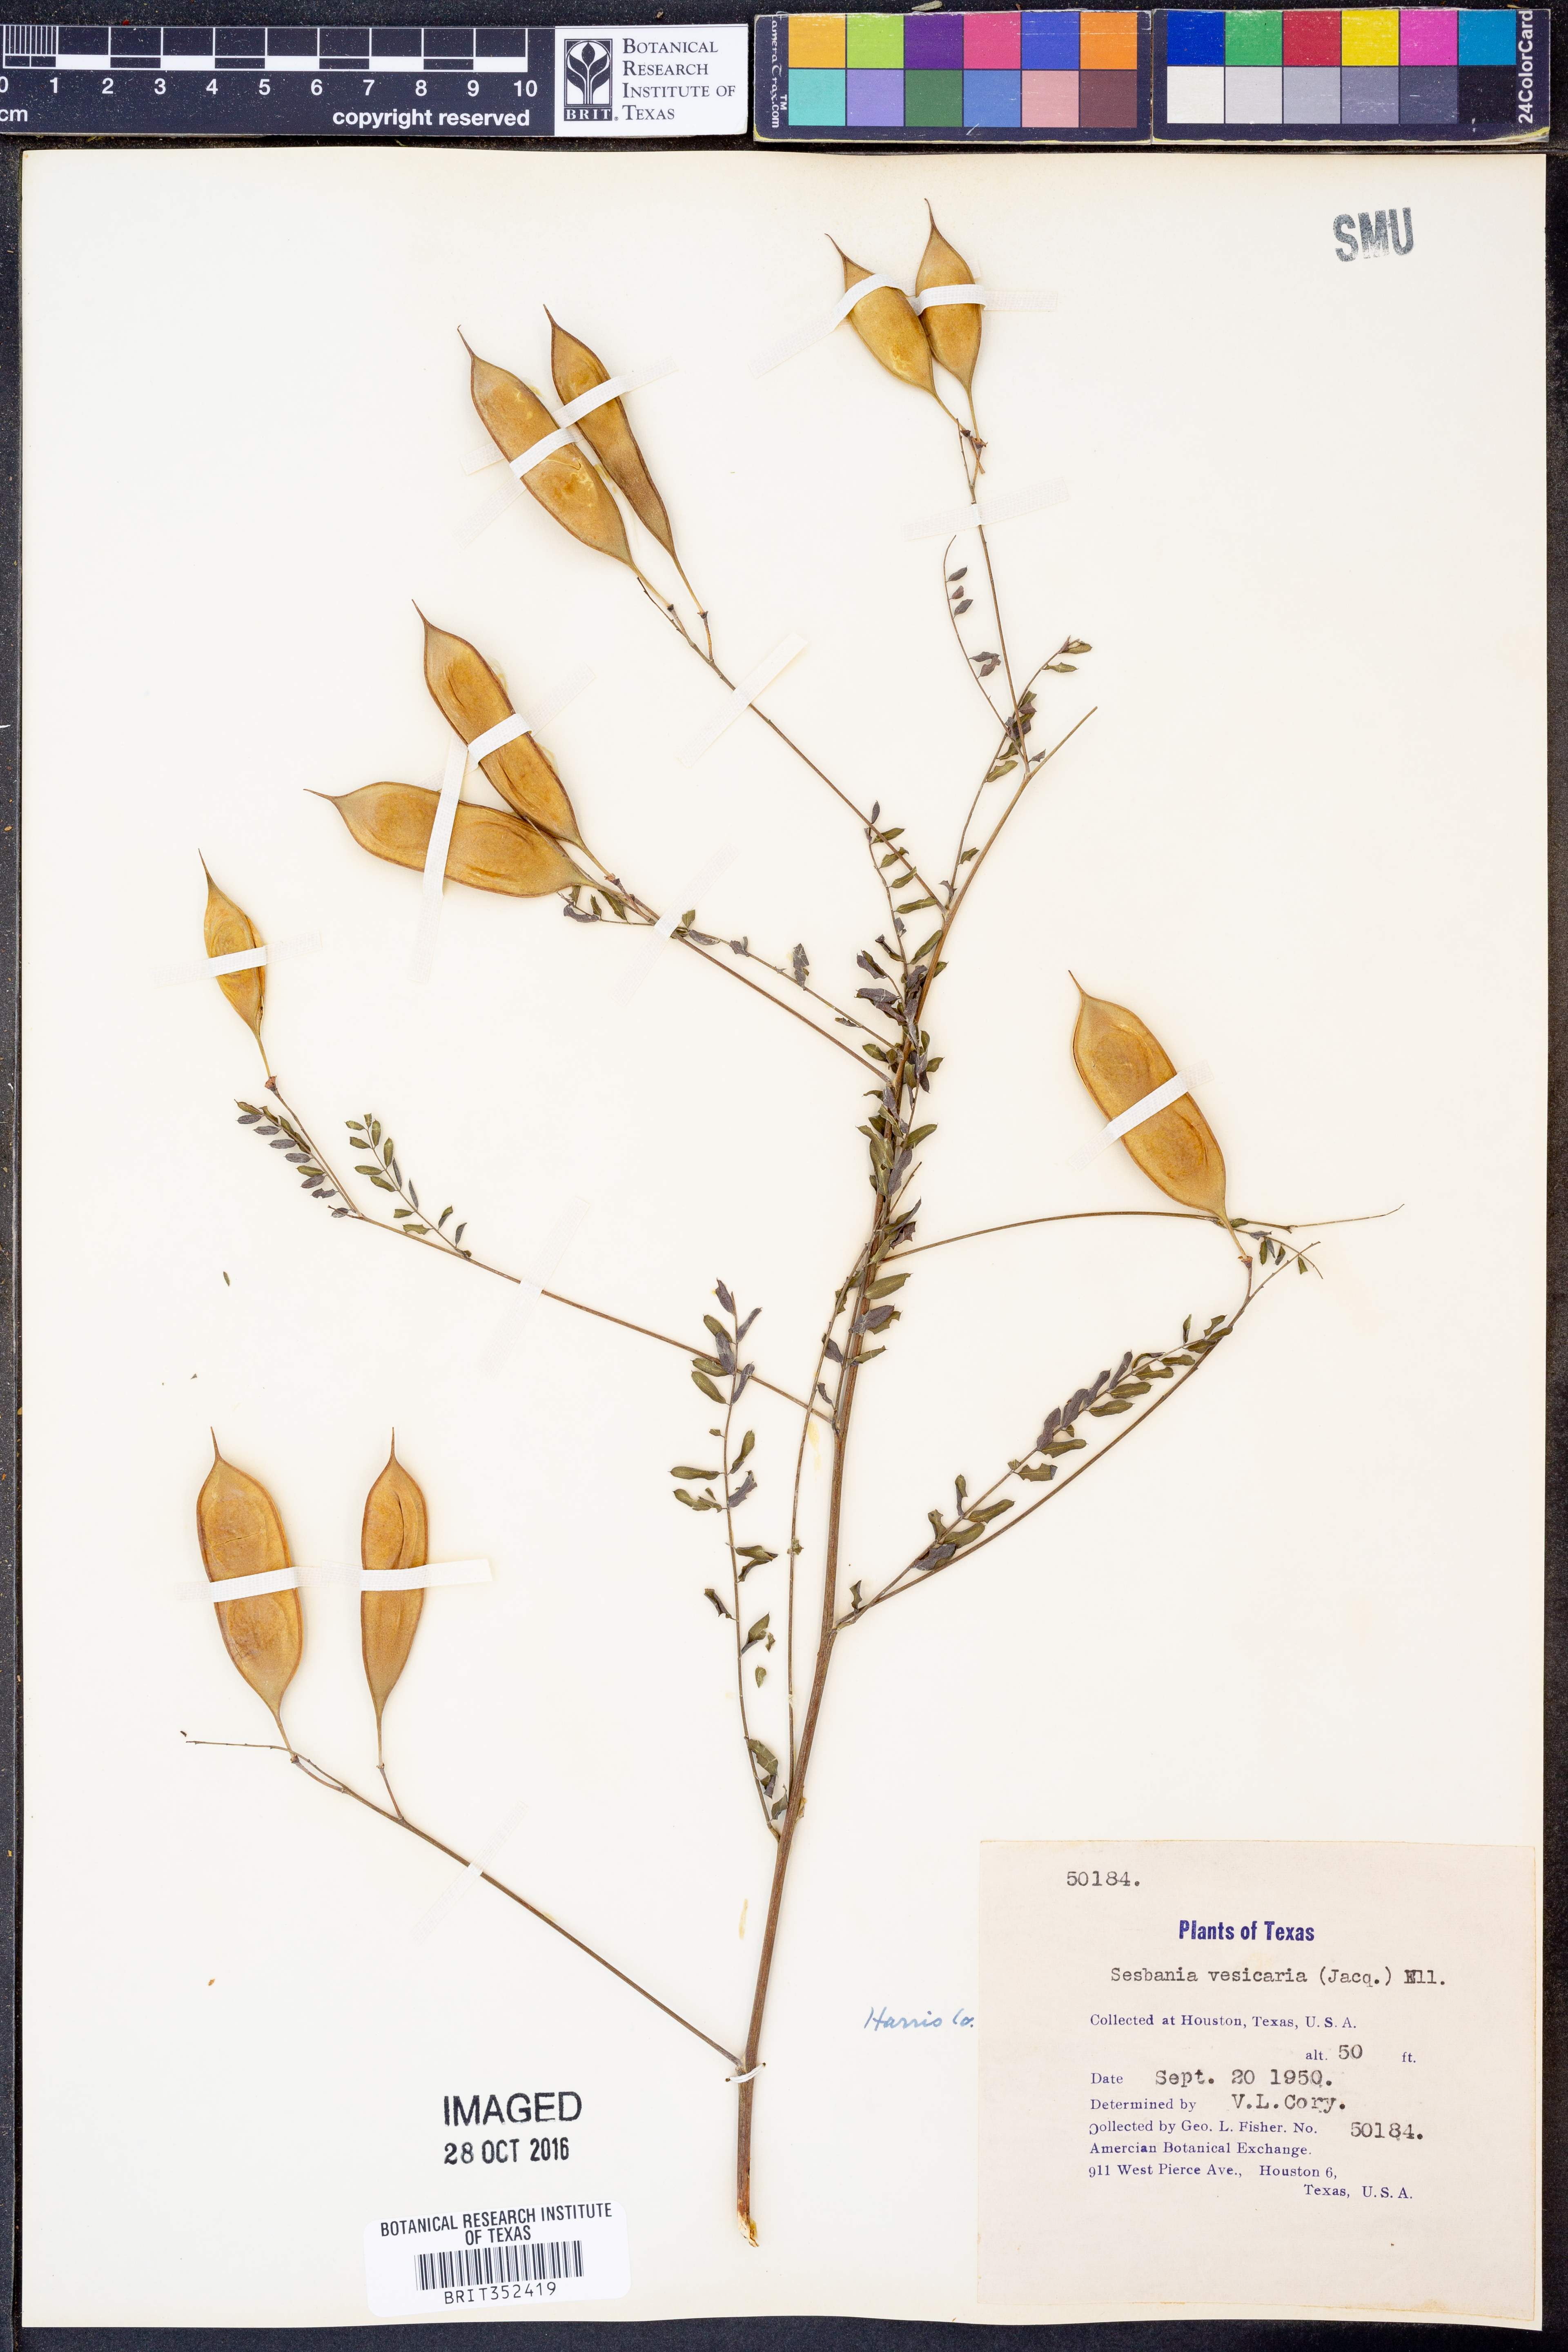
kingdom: Plantae
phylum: Tracheophyta
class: Magnoliopsida
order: Fabales
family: Fabaceae
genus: Sesbania
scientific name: Sesbania vesicaria
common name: Bagpod
